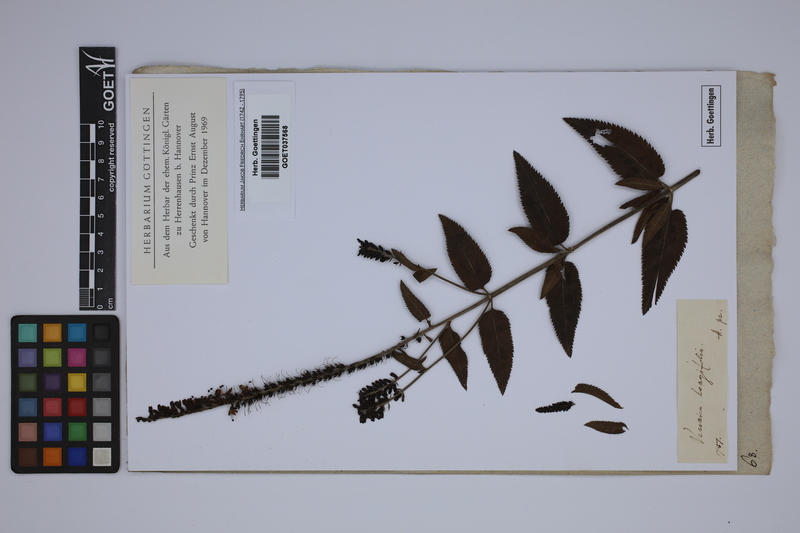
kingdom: Plantae
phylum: Tracheophyta
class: Magnoliopsida
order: Lamiales
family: Plantaginaceae
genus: Veronica
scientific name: Veronica longifolia
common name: Garden speedwell
